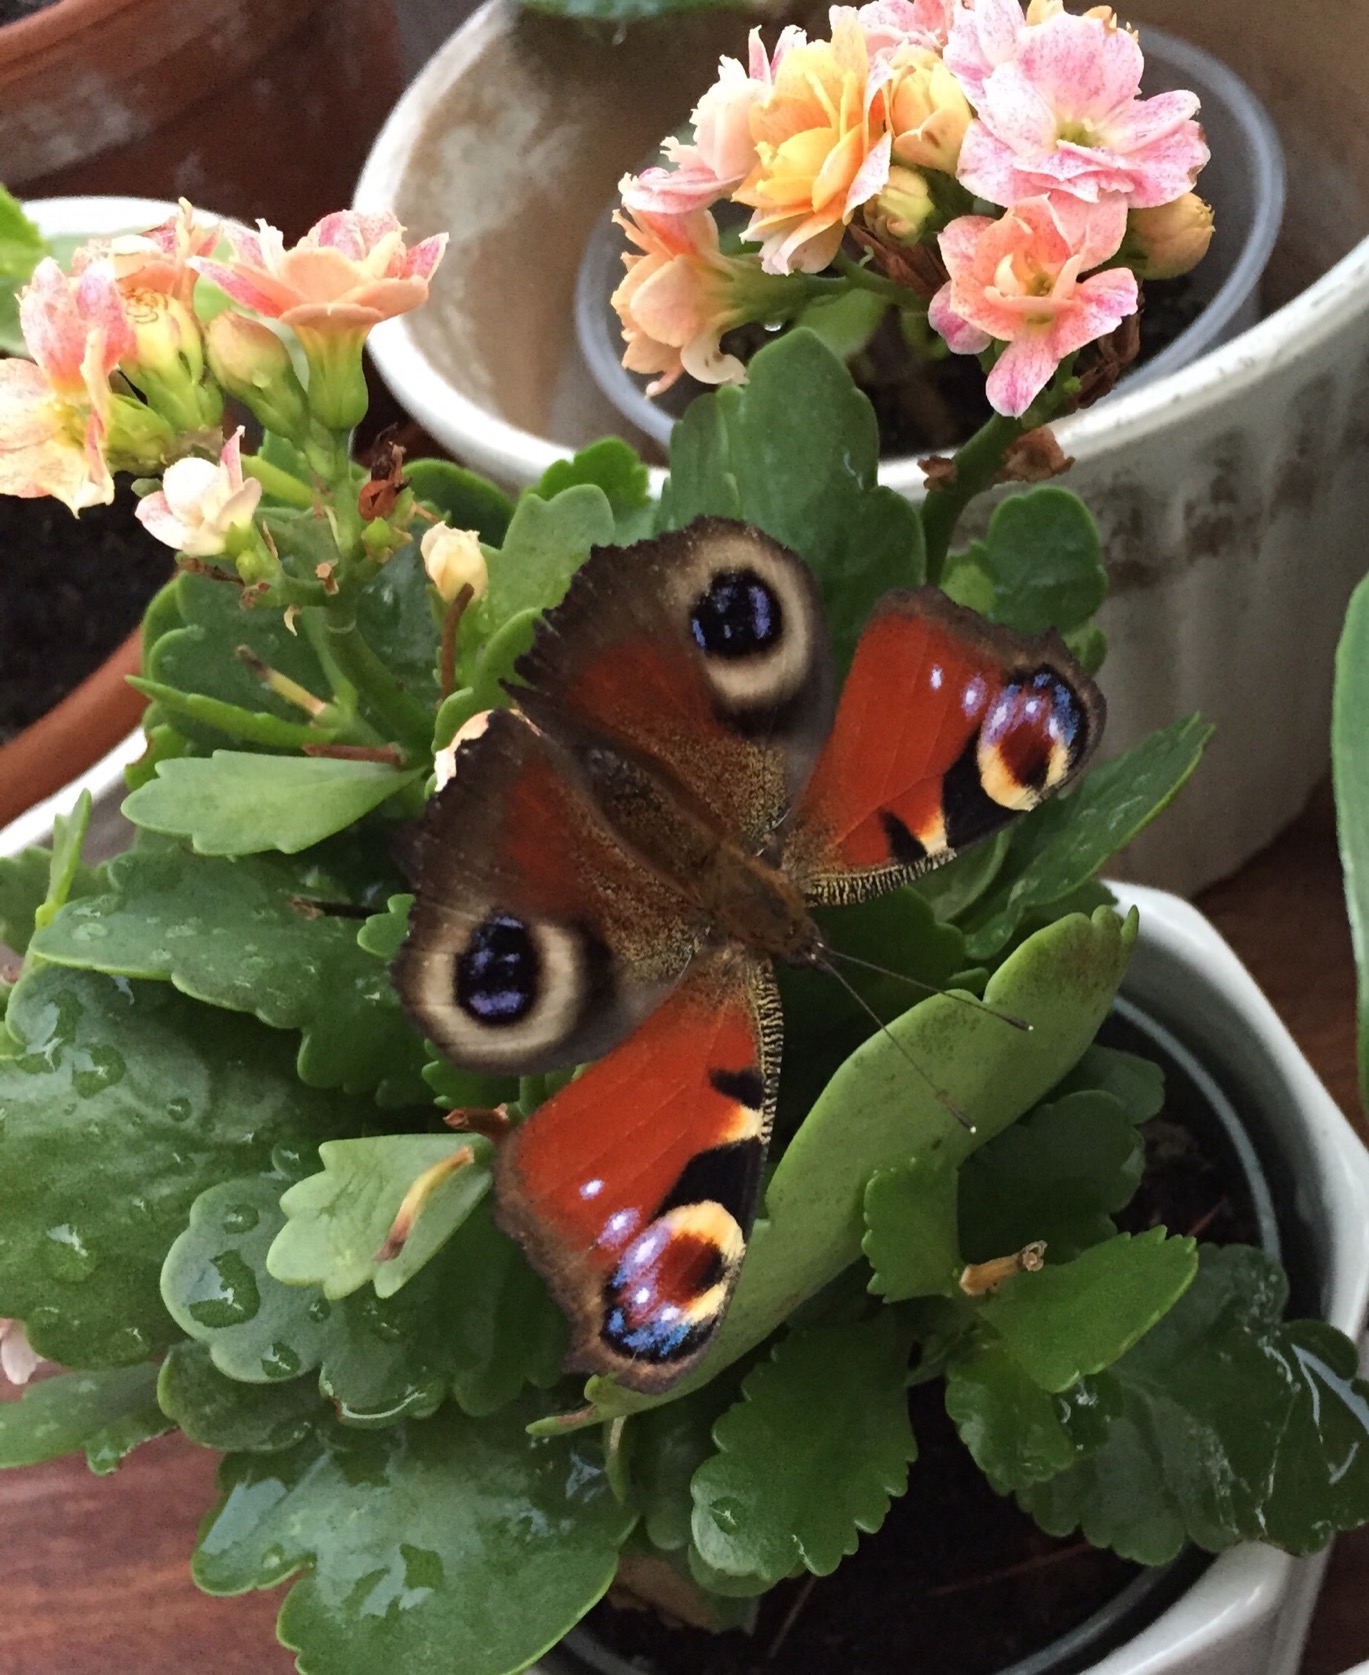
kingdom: Animalia
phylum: Arthropoda
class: Insecta
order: Lepidoptera
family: Nymphalidae
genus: Aglais
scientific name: Aglais io
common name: Dagpåfugleøje
